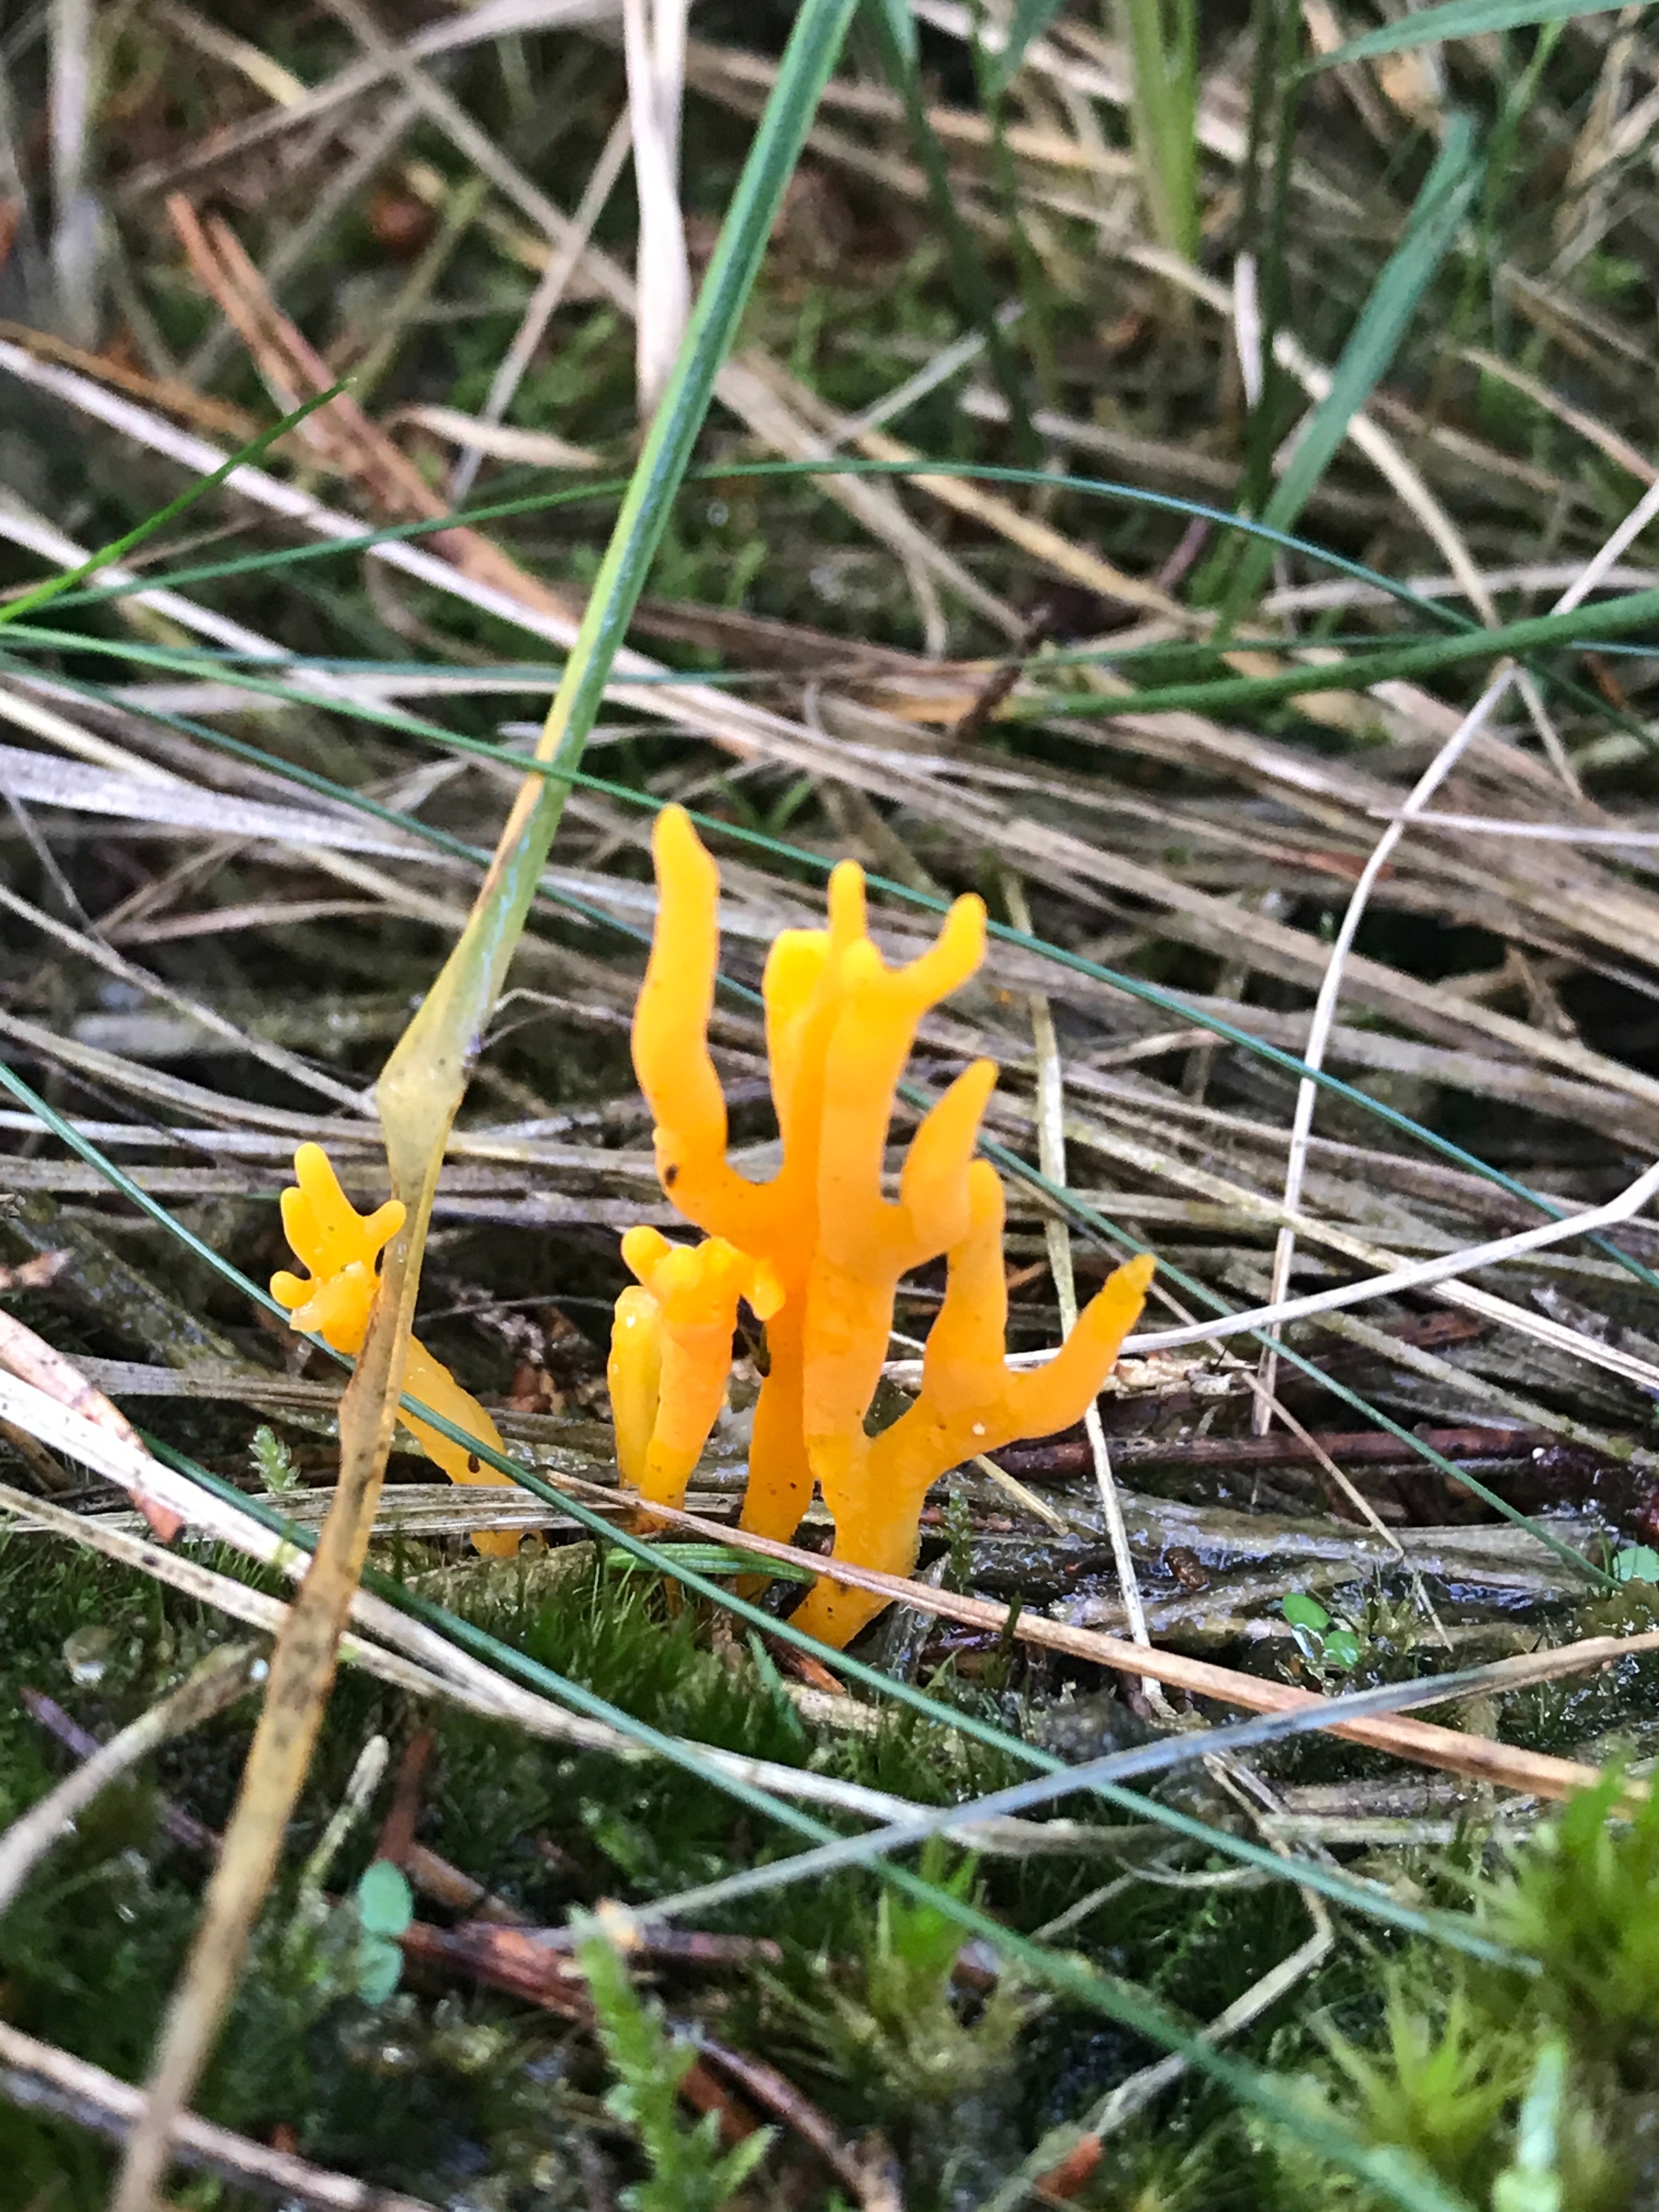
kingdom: Fungi
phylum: Basidiomycota
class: Dacrymycetes
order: Dacrymycetales
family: Dacrymycetaceae
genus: Calocera
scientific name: Calocera viscosa
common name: almindelig guldgaffel
